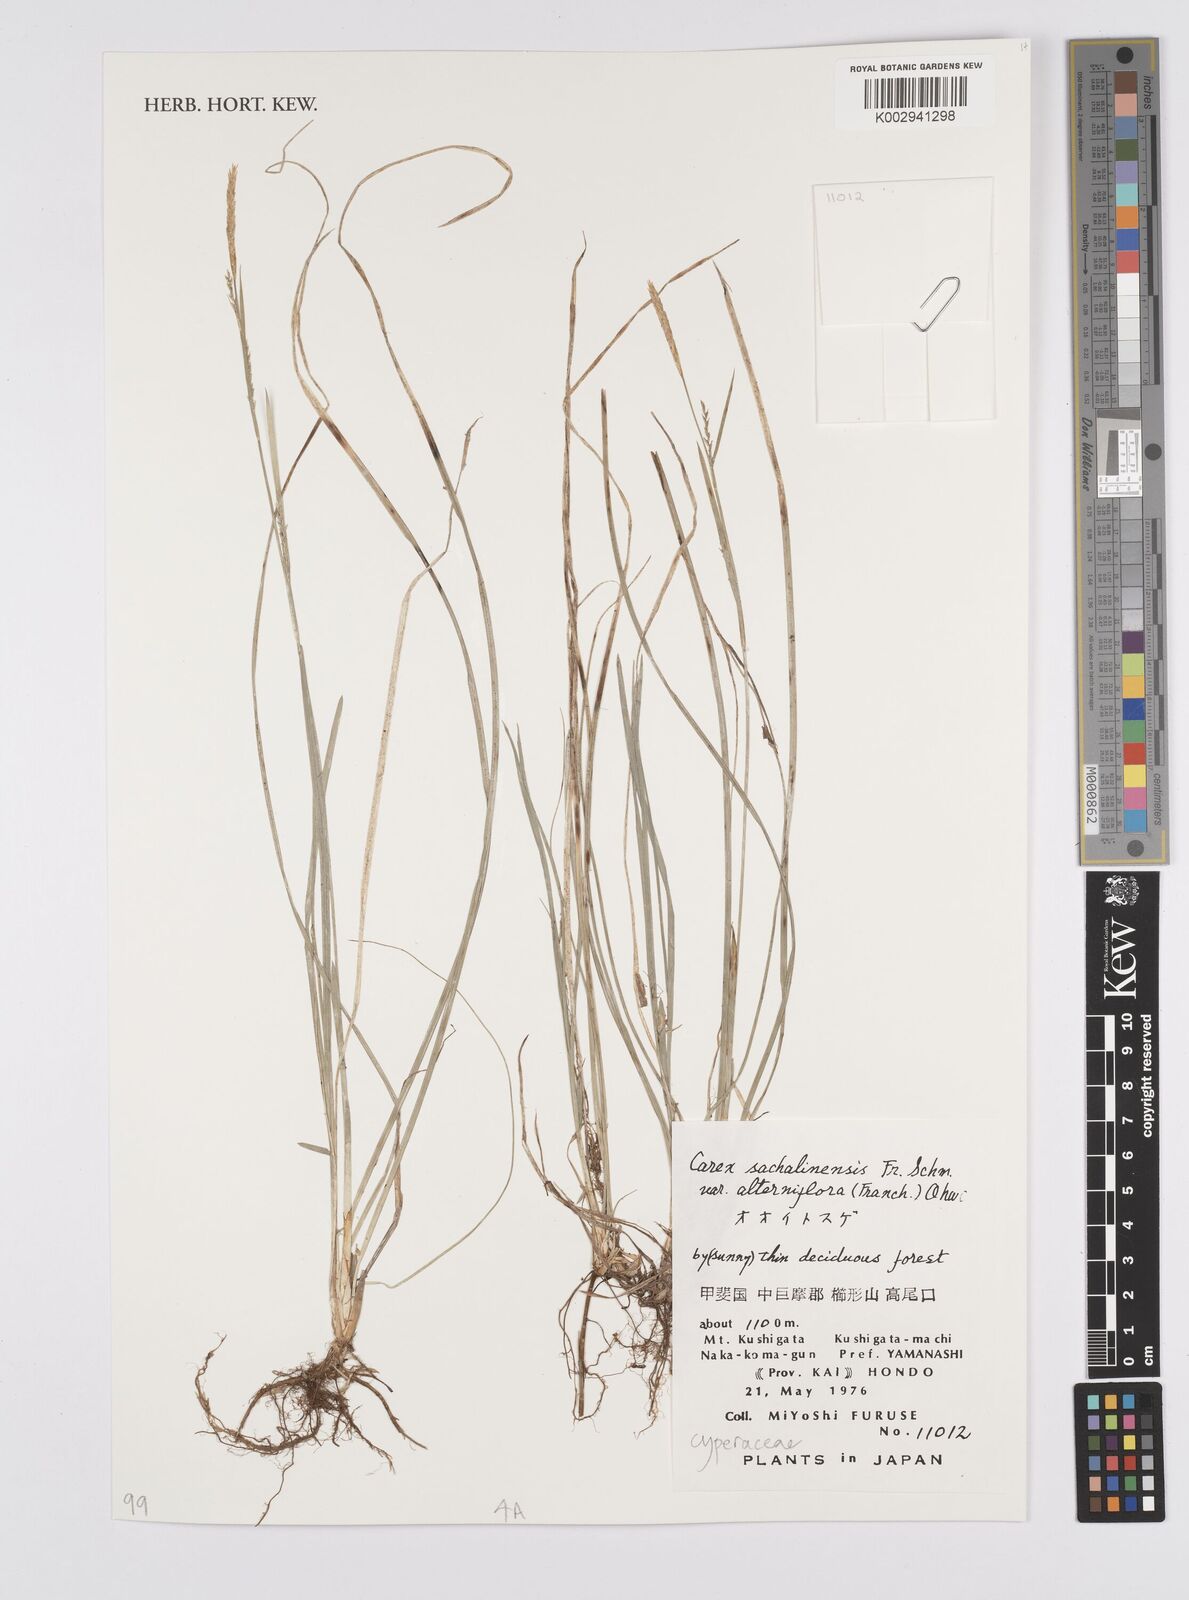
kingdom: Plantae
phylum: Tracheophyta
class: Liliopsida
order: Poales
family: Cyperaceae
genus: Carex
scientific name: Carex pisiformis
